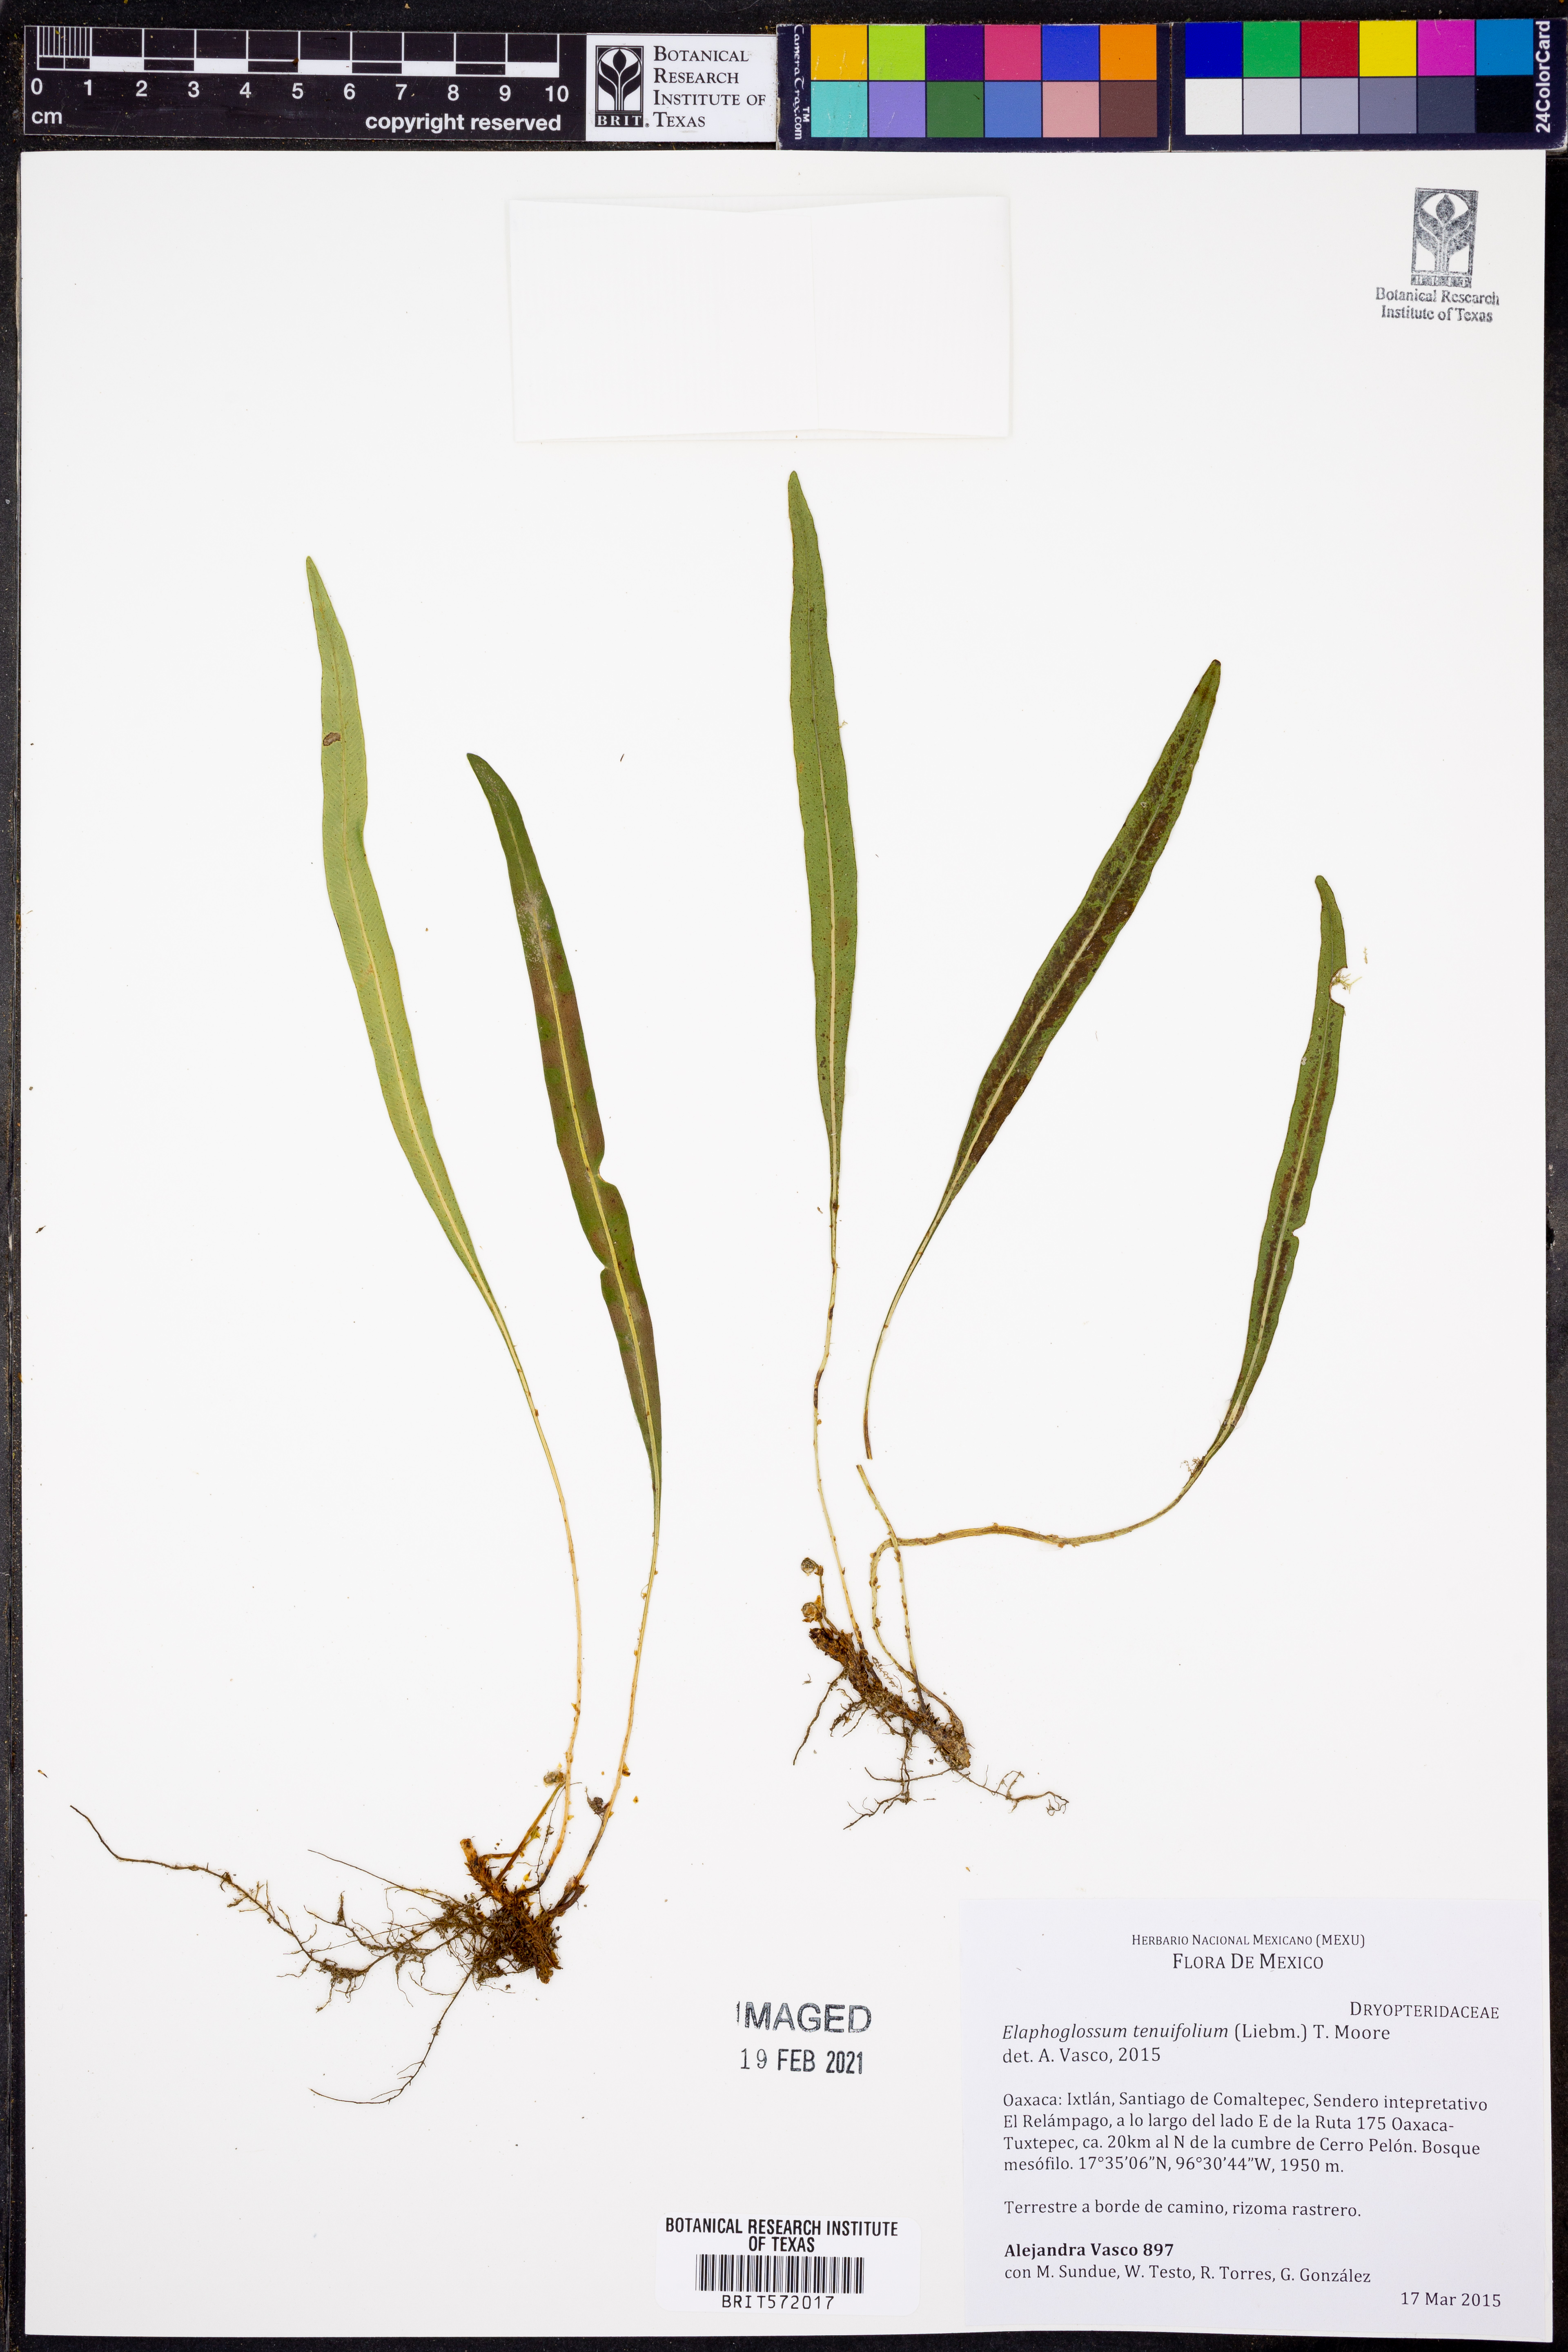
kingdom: Plantae
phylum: Tracheophyta
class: Polypodiopsida
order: Polypodiales
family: Dryopteridaceae
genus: Elaphoglossum
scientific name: Elaphoglossum tenuifolium
